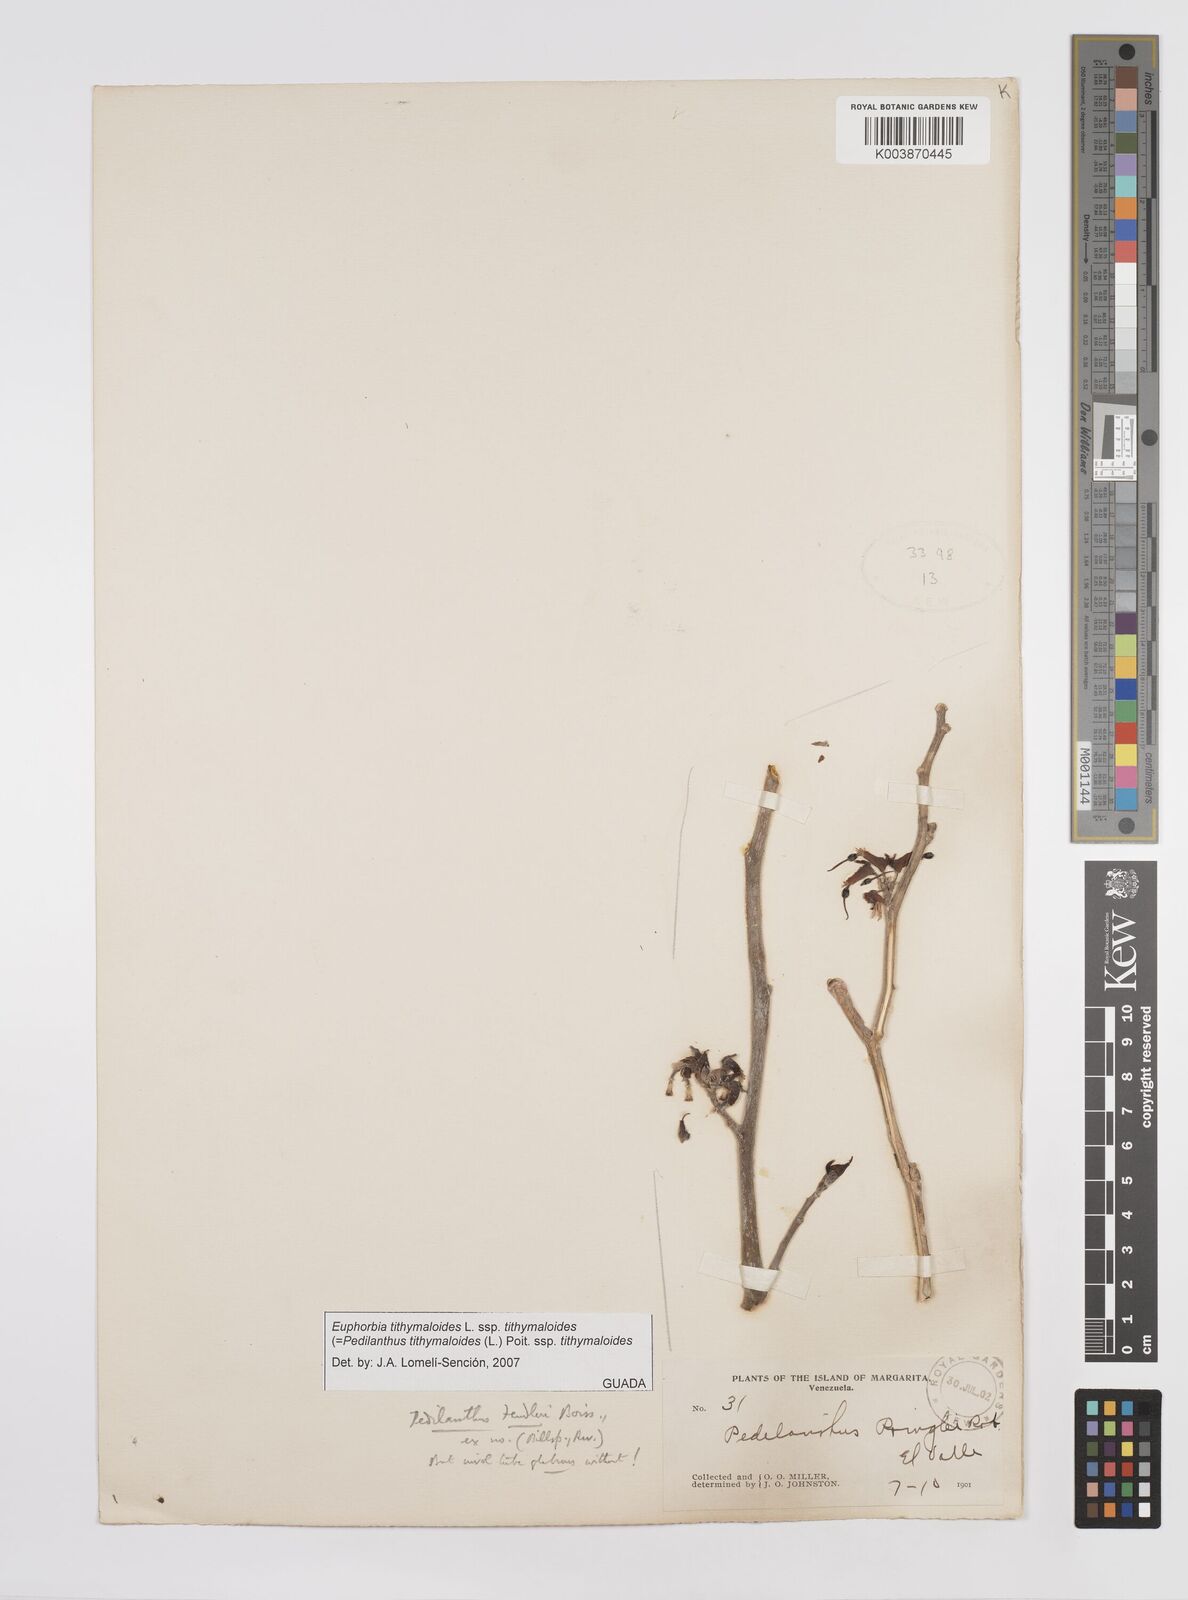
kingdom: Plantae
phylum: Tracheophyta
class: Magnoliopsida
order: Malpighiales
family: Euphorbiaceae
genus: Euphorbia
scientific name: Euphorbia tithymaloides
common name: Slipperplant
